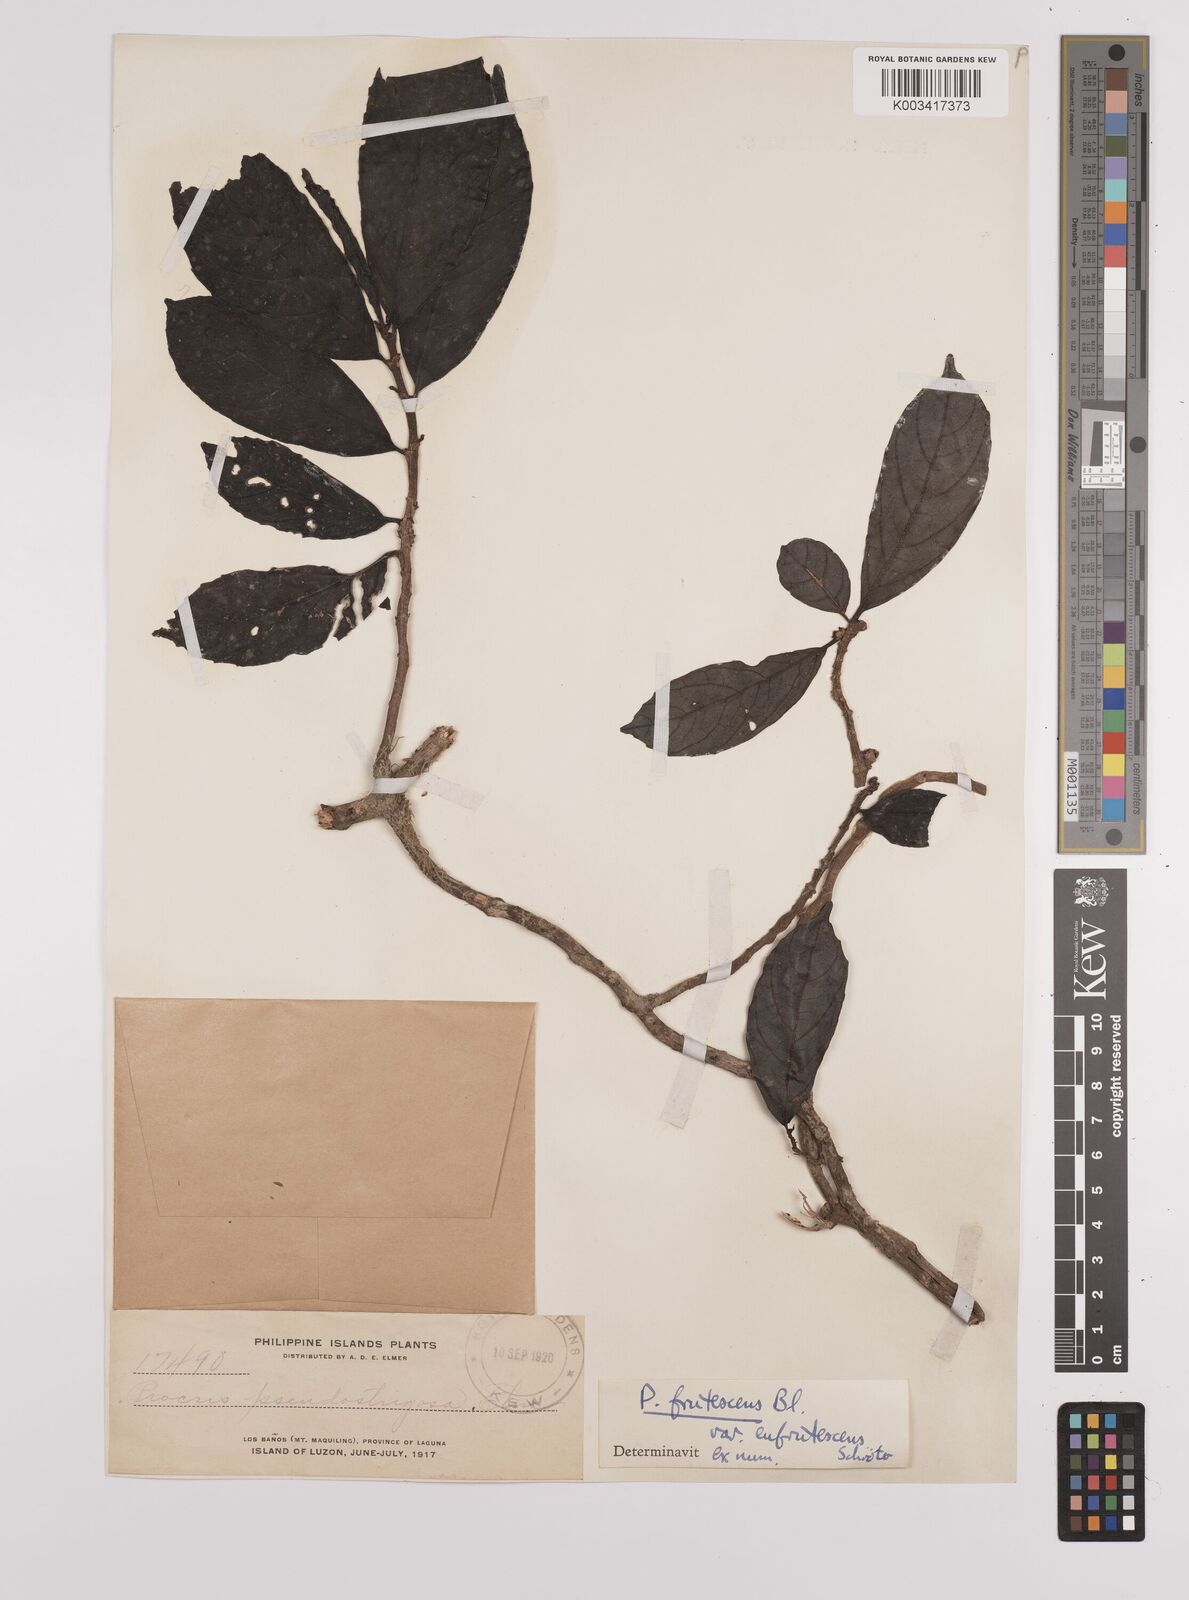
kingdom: Plantae
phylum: Tracheophyta
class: Magnoliopsida
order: Rosales
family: Urticaceae
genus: Procris
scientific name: Procris frutescens
